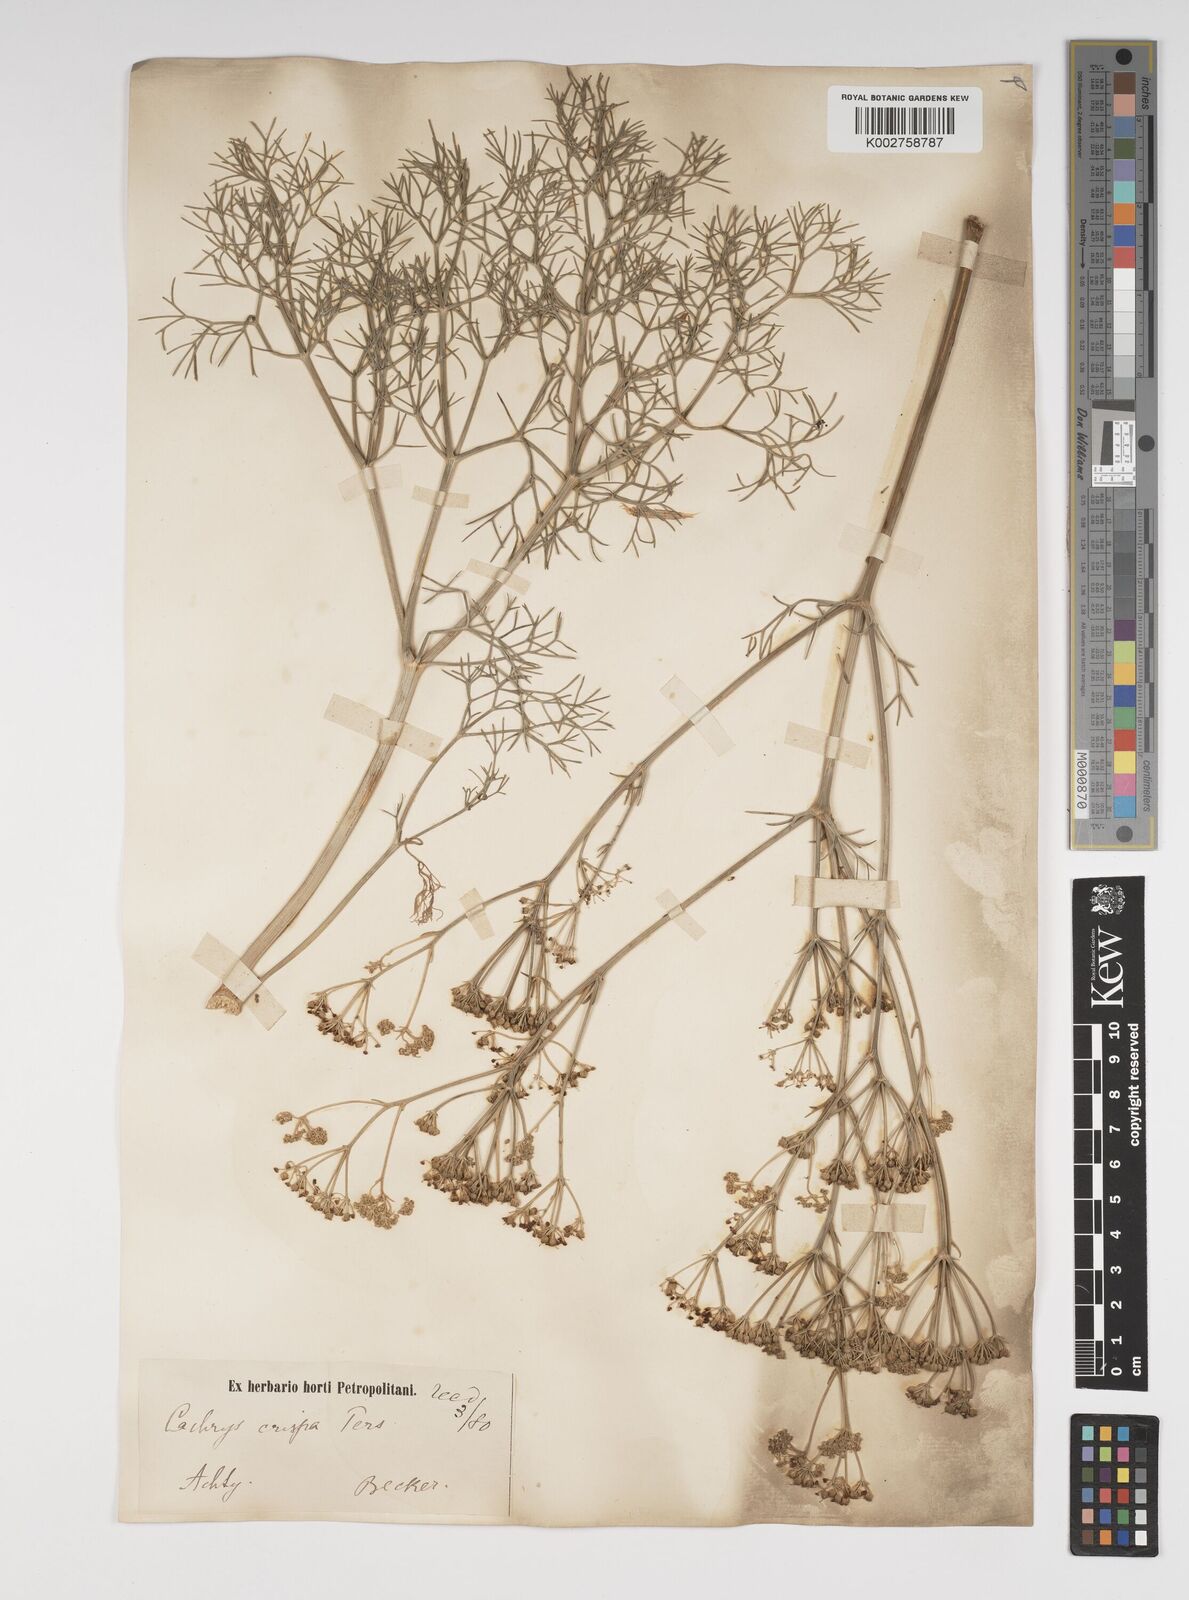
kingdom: Plantae
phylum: Tracheophyta
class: Magnoliopsida
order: Apiales
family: Apiaceae
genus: Bilacunaria
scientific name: Bilacunaria microcarpa
